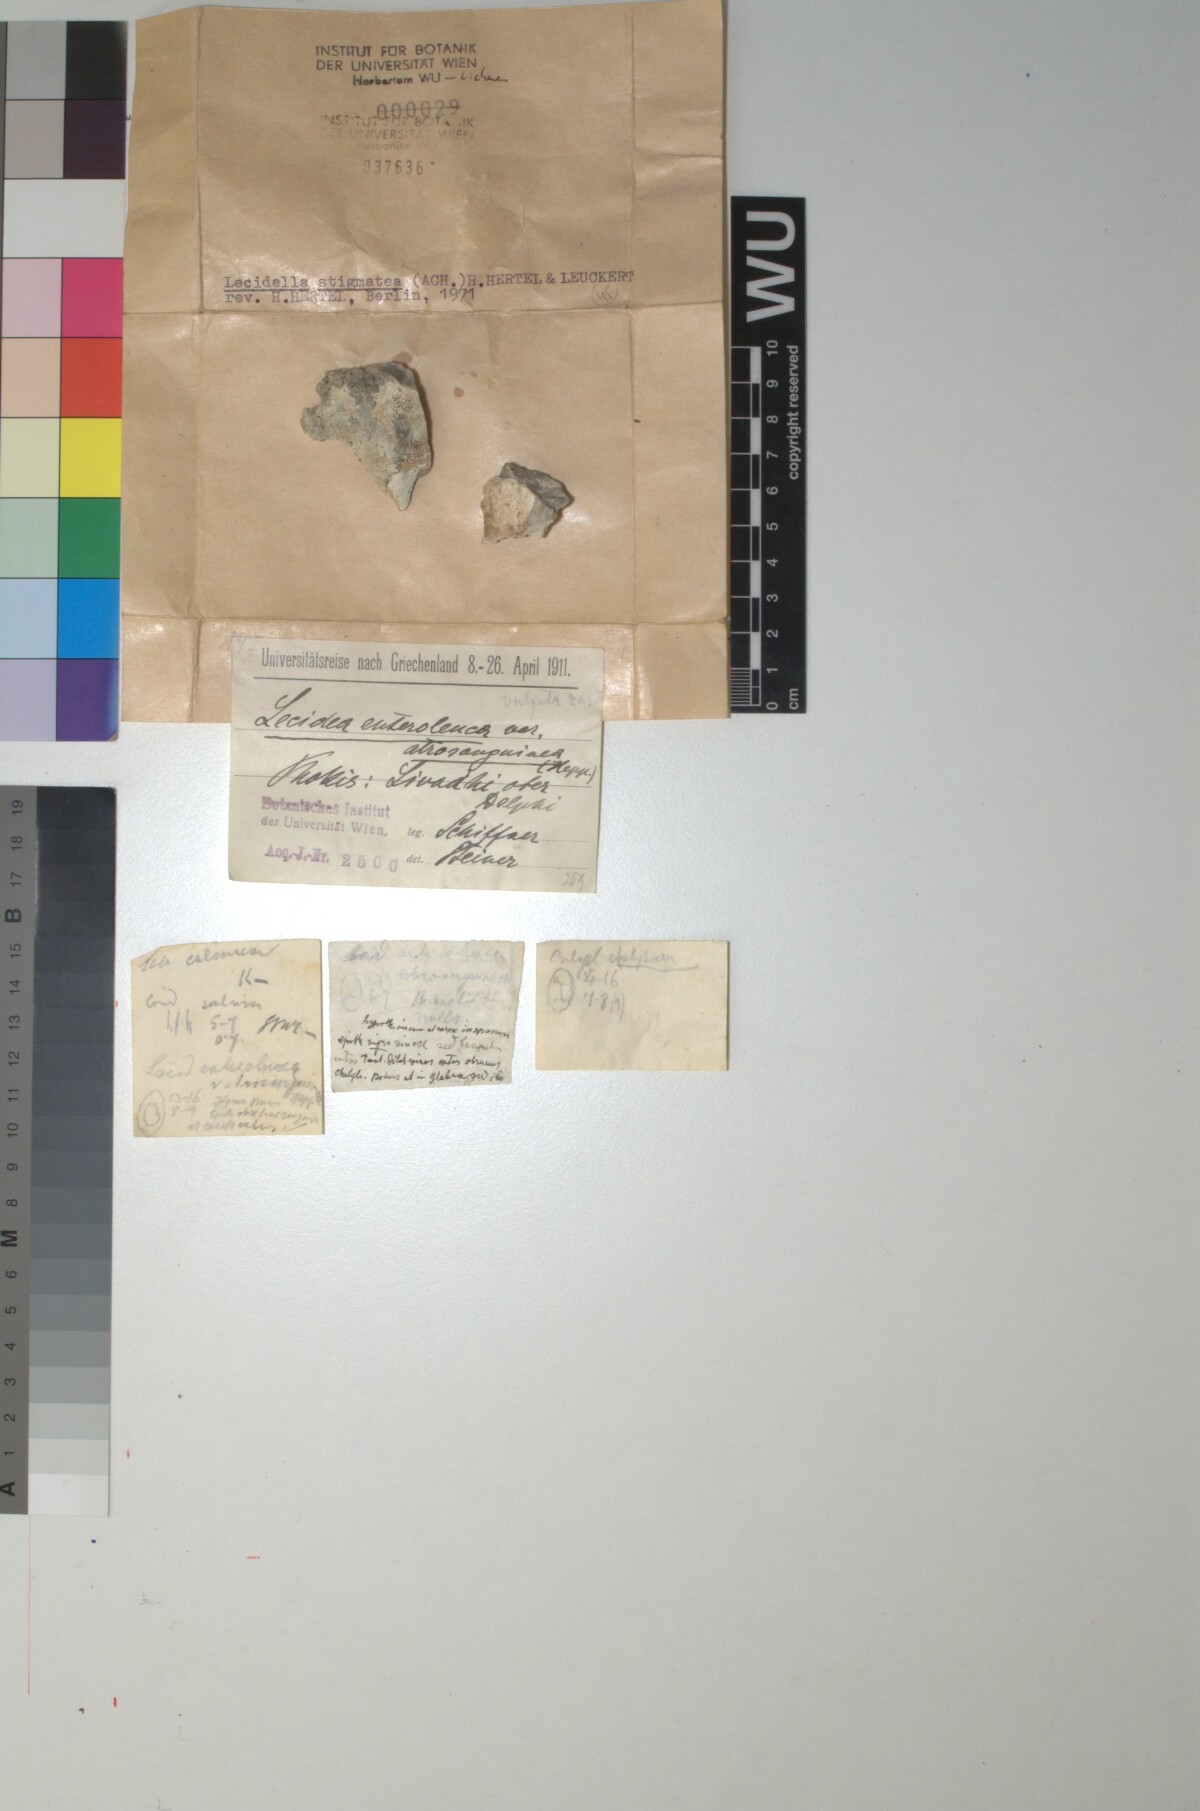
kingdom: Fungi
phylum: Ascomycota
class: Lecanoromycetes
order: Lecanorales
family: Lecanoraceae
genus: Lecidella
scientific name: Lecidella stigmatea
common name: Limestone disc lichen
